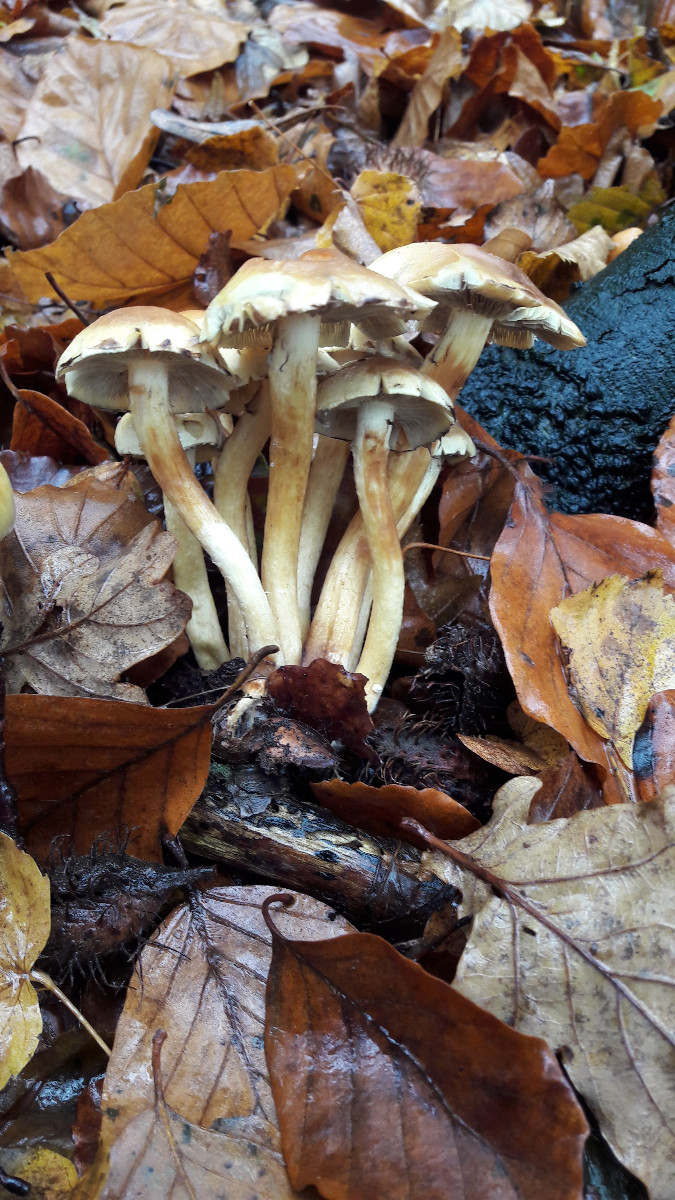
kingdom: Fungi
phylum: Basidiomycota
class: Agaricomycetes
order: Agaricales
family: Strophariaceae
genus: Hypholoma
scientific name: Hypholoma fasciculare
